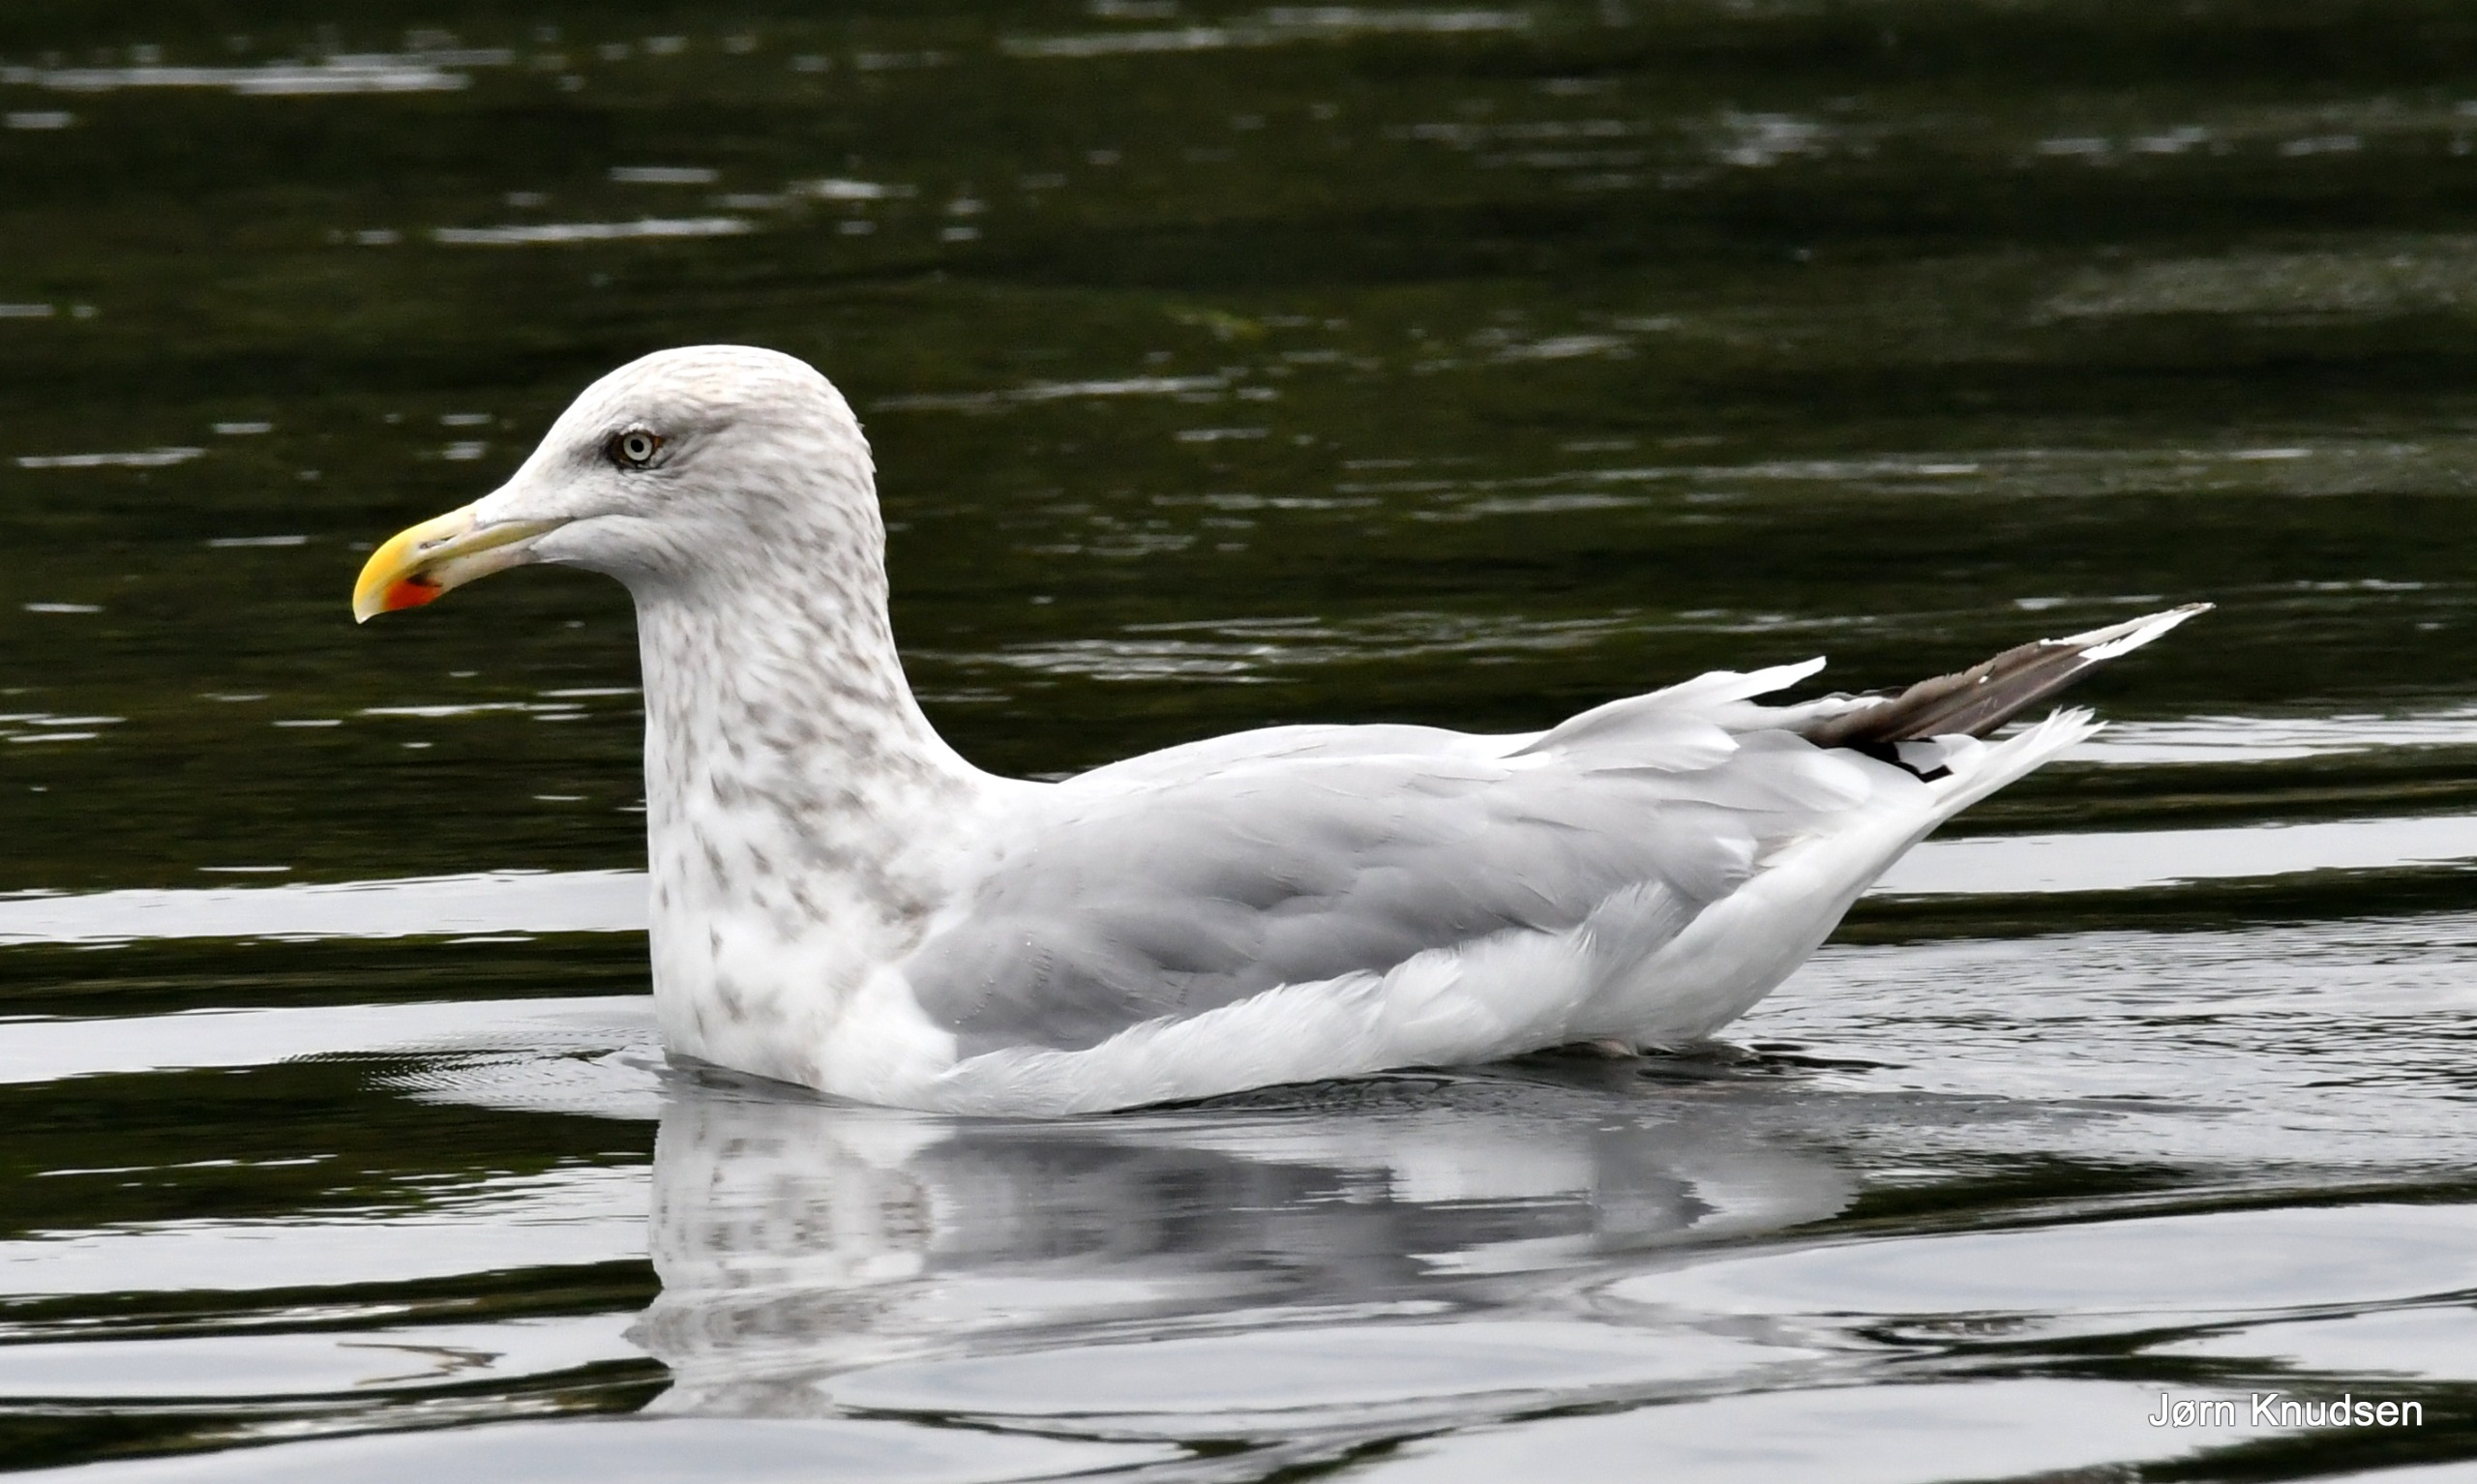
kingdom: Animalia
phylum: Chordata
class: Aves
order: Charadriiformes
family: Laridae
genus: Larus
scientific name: Larus argentatus
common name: Sølvmåge
